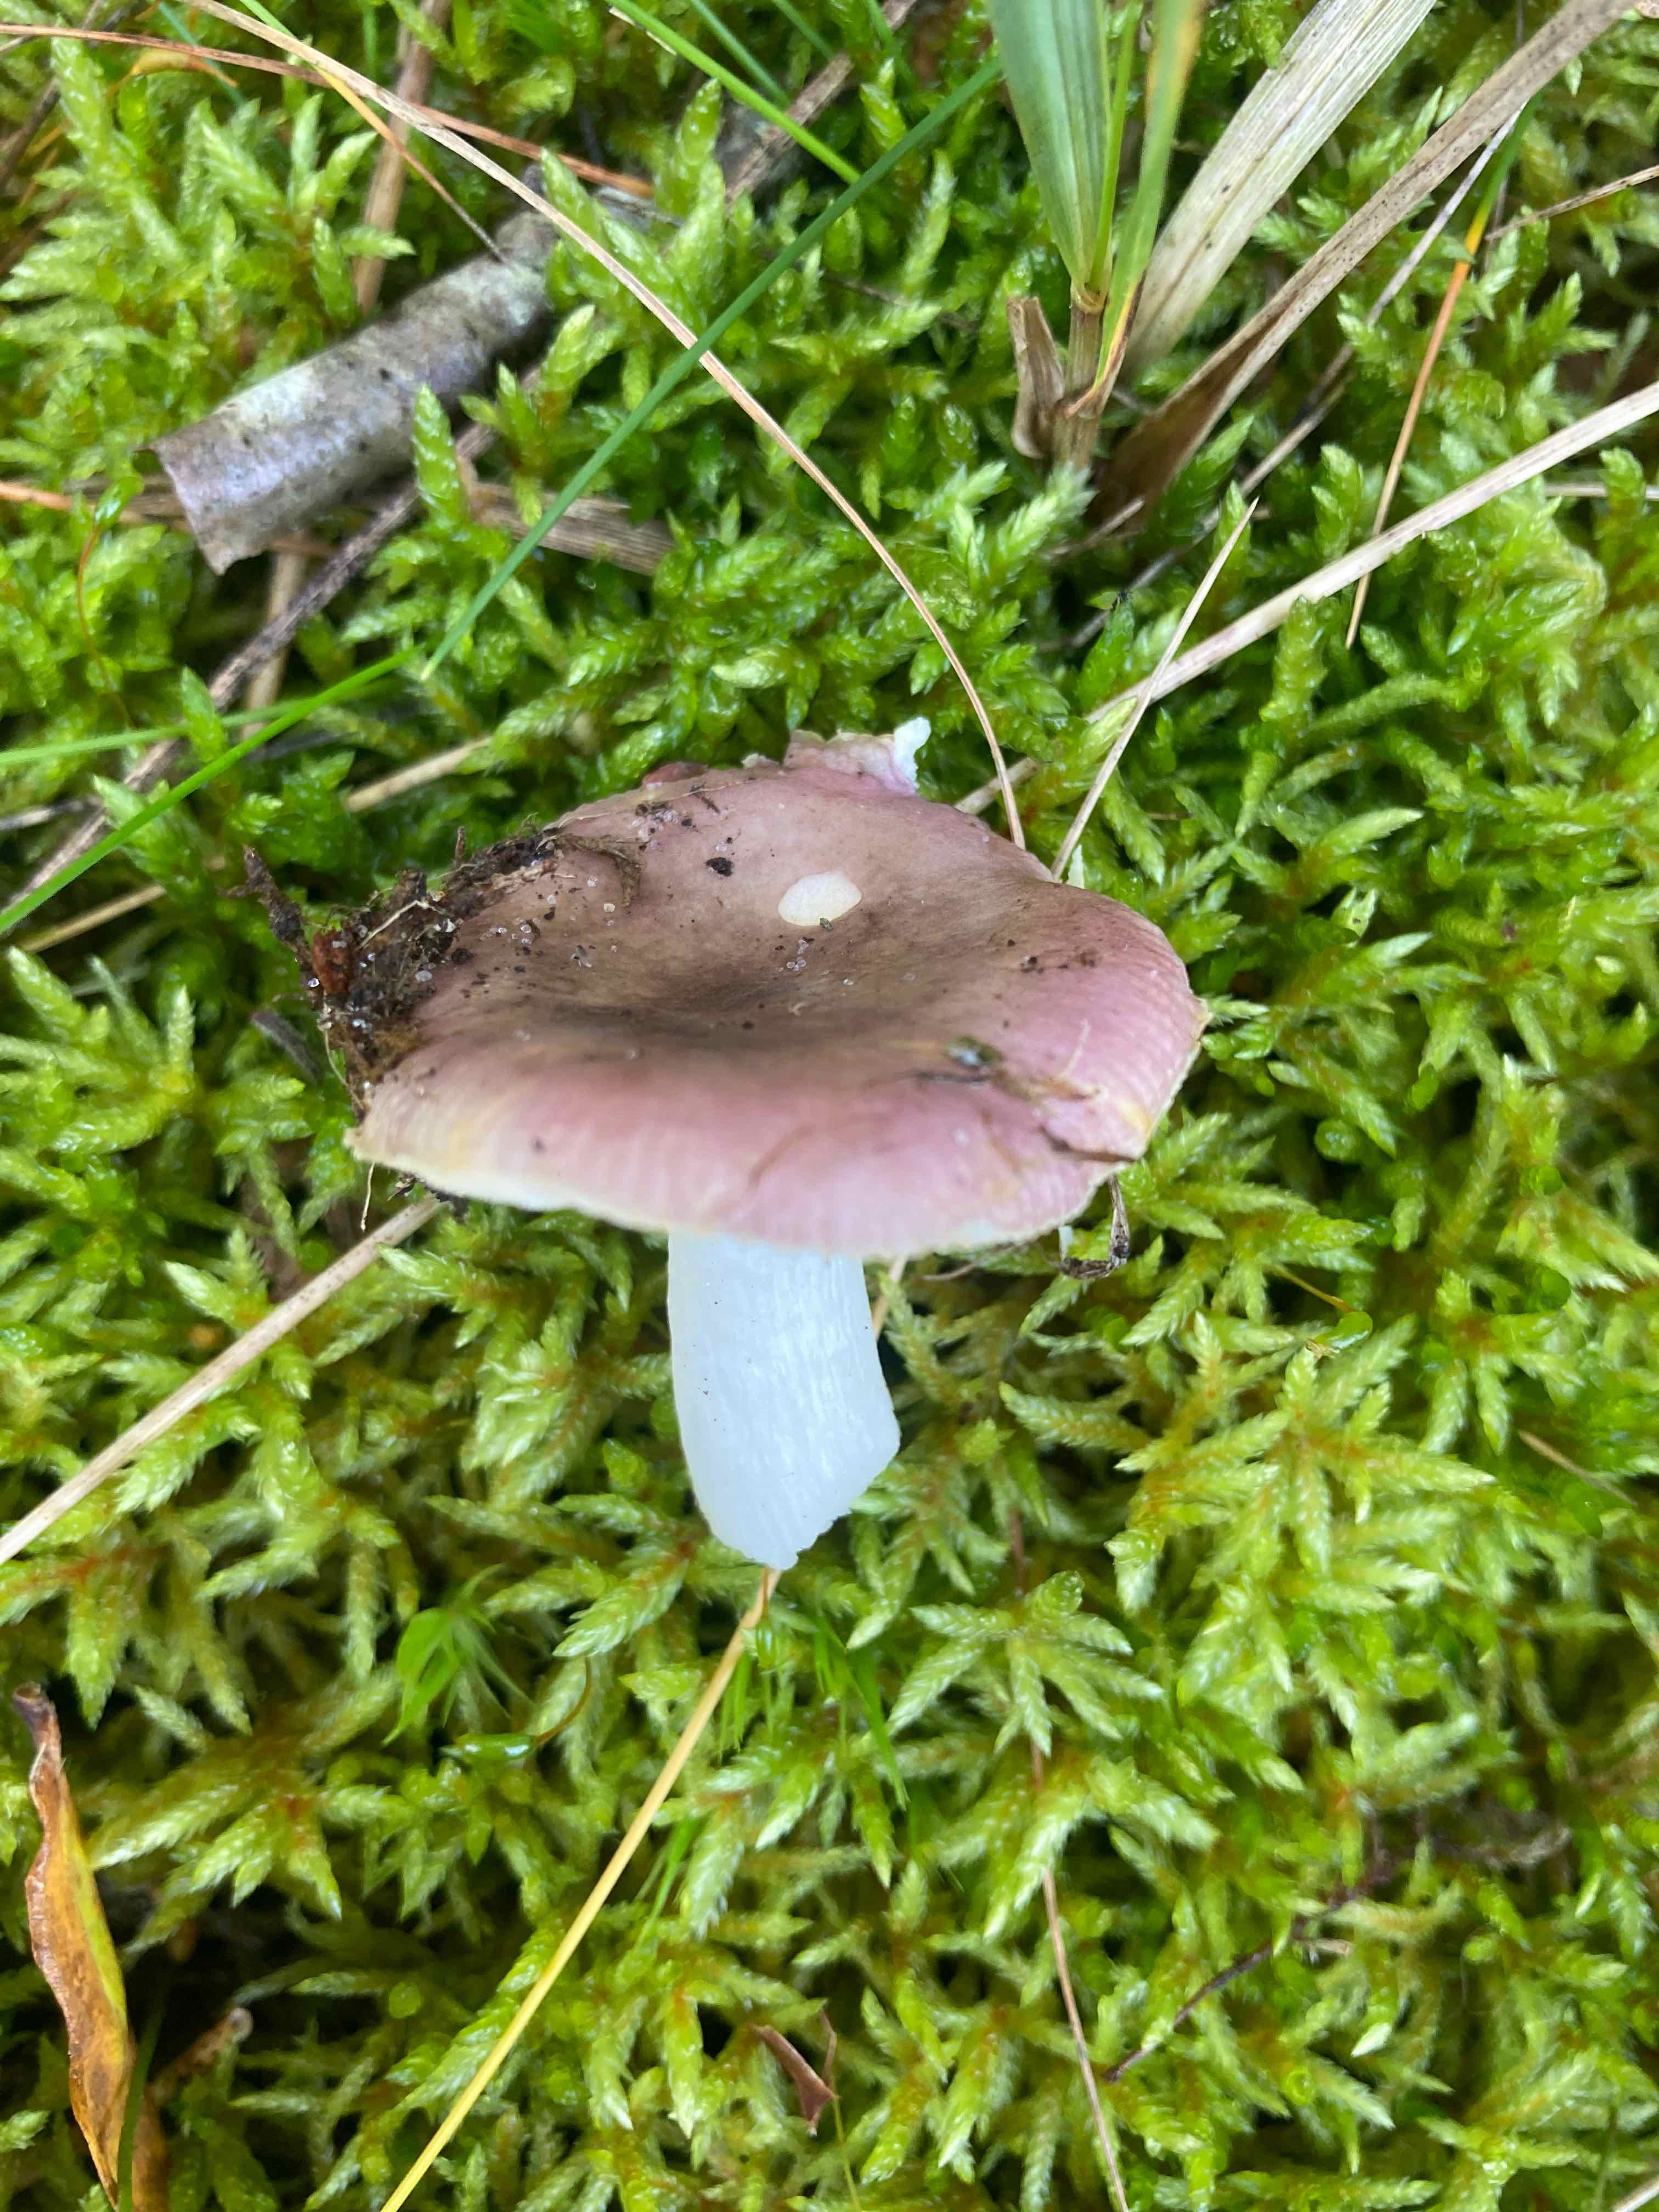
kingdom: Fungi
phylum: Basidiomycota
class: Agaricomycetes
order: Russulales
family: Russulaceae
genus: Russula
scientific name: Russula fragilis
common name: savbladet skørhat
